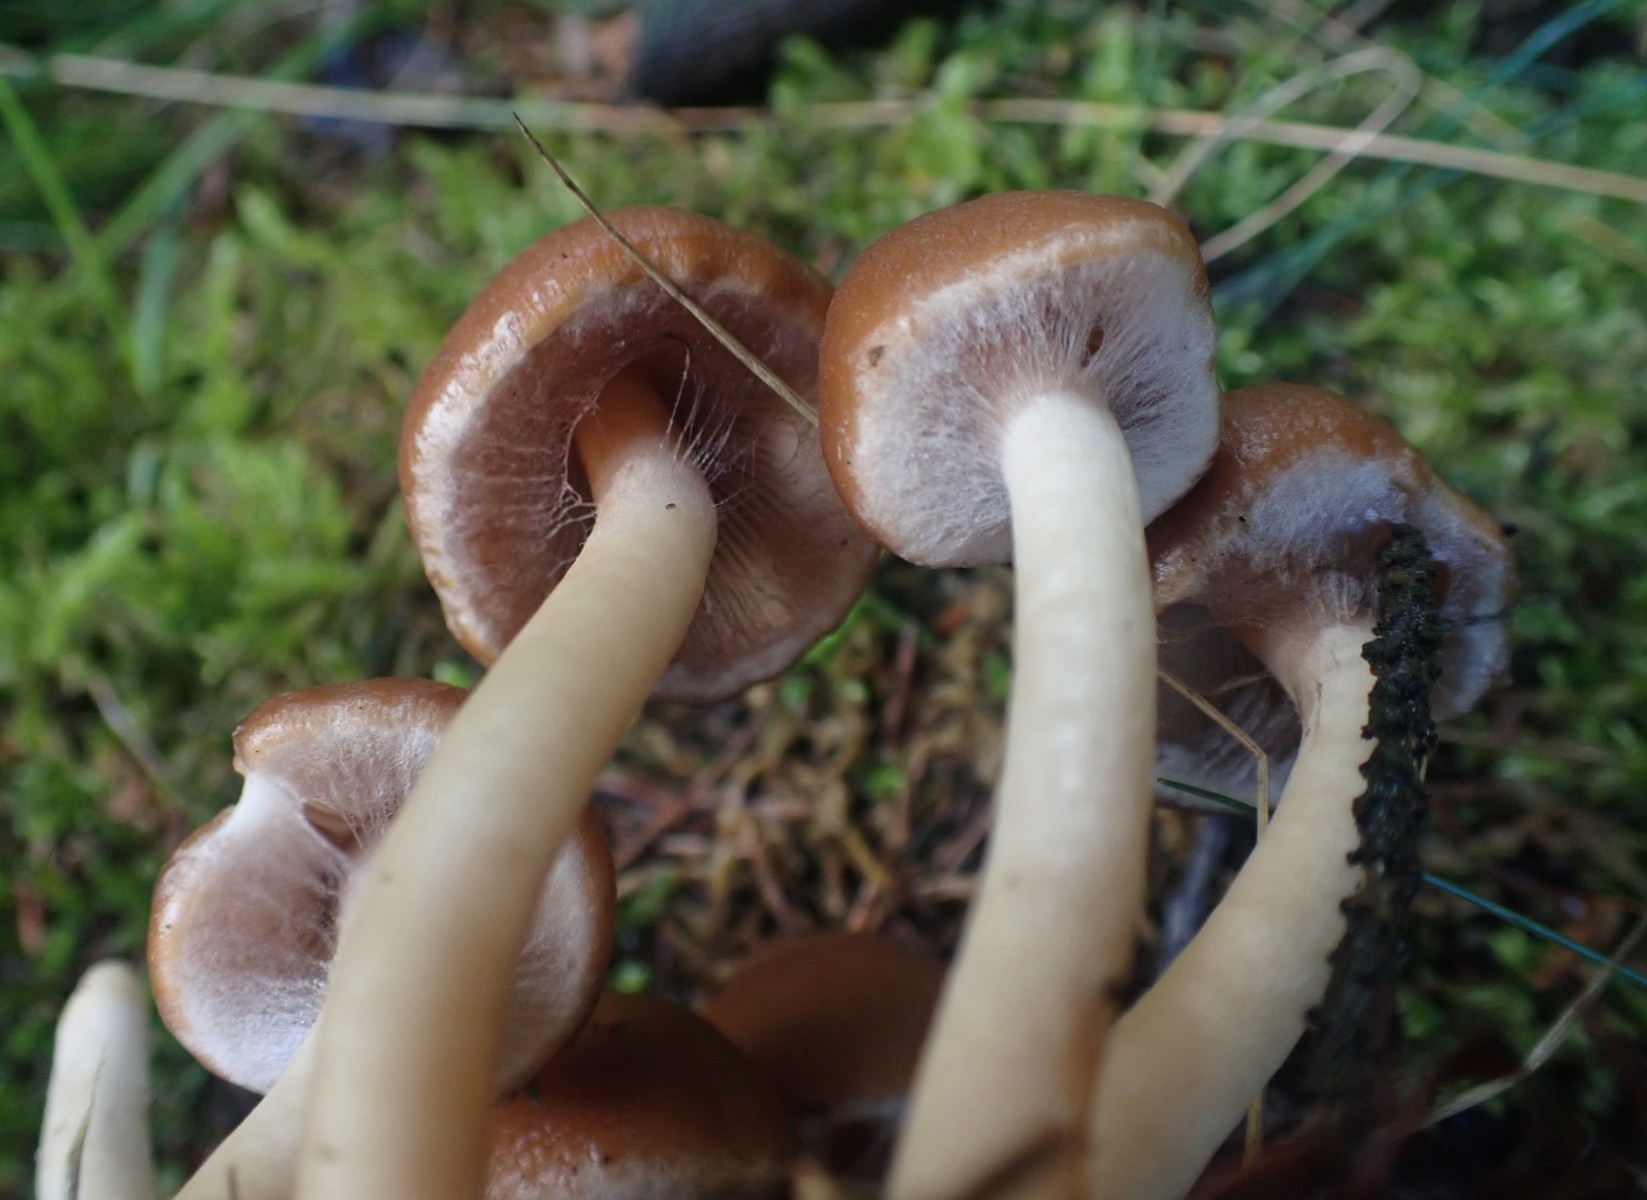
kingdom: Fungi
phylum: Basidiomycota
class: Agaricomycetes
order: Agaricales
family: Psathyrellaceae
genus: Psathyrella
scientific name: Psathyrella piluliformis
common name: lysstokket mørkhat
